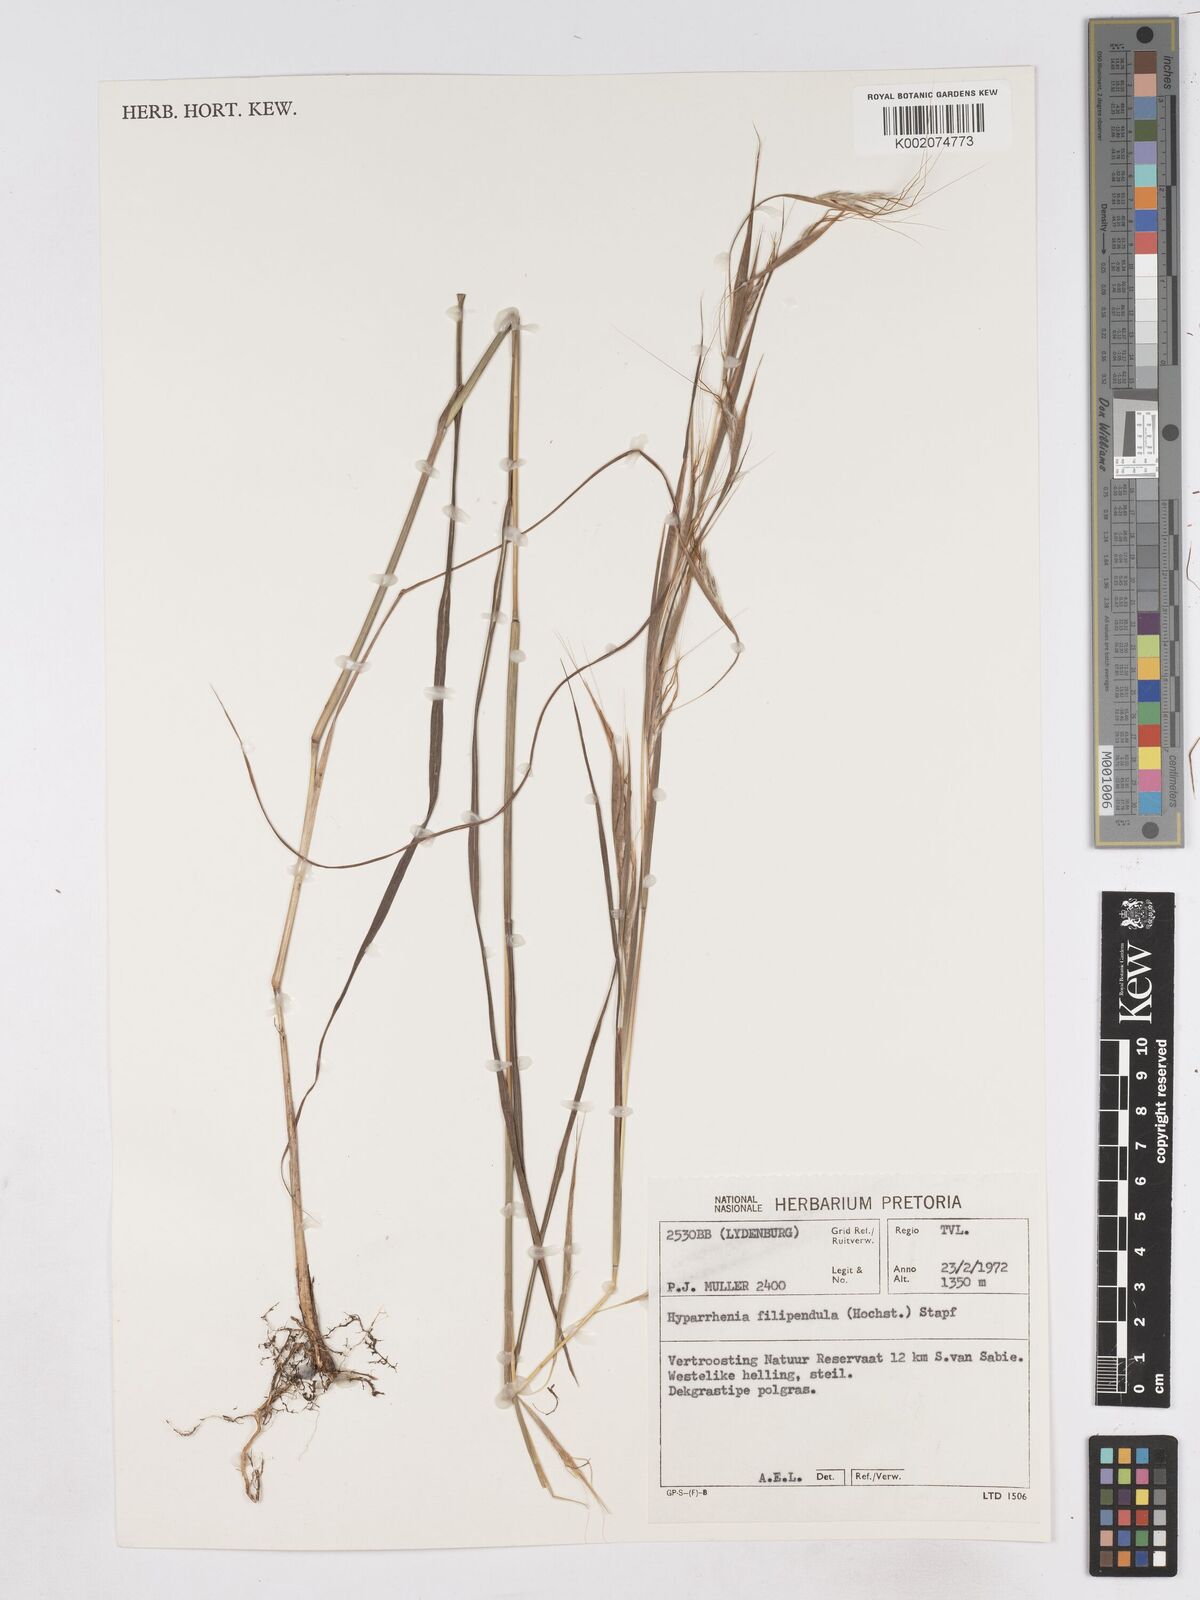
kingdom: Plantae
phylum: Tracheophyta
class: Liliopsida
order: Poales
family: Poaceae
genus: Hyparrhenia
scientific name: Hyparrhenia filipendula
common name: Tambookie grass
